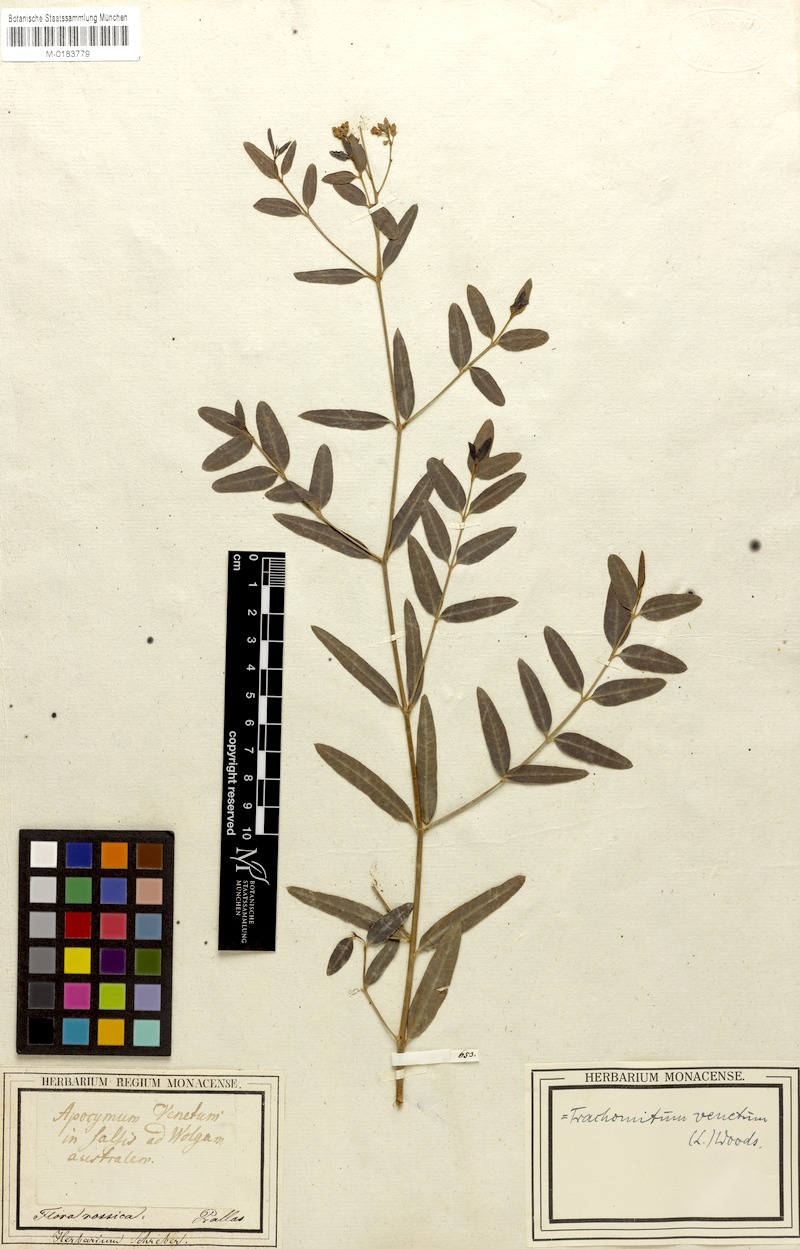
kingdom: Plantae
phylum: Tracheophyta
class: Magnoliopsida
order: Gentianales
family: Apocynaceae
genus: Poacynum
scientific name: Poacynum venetum
